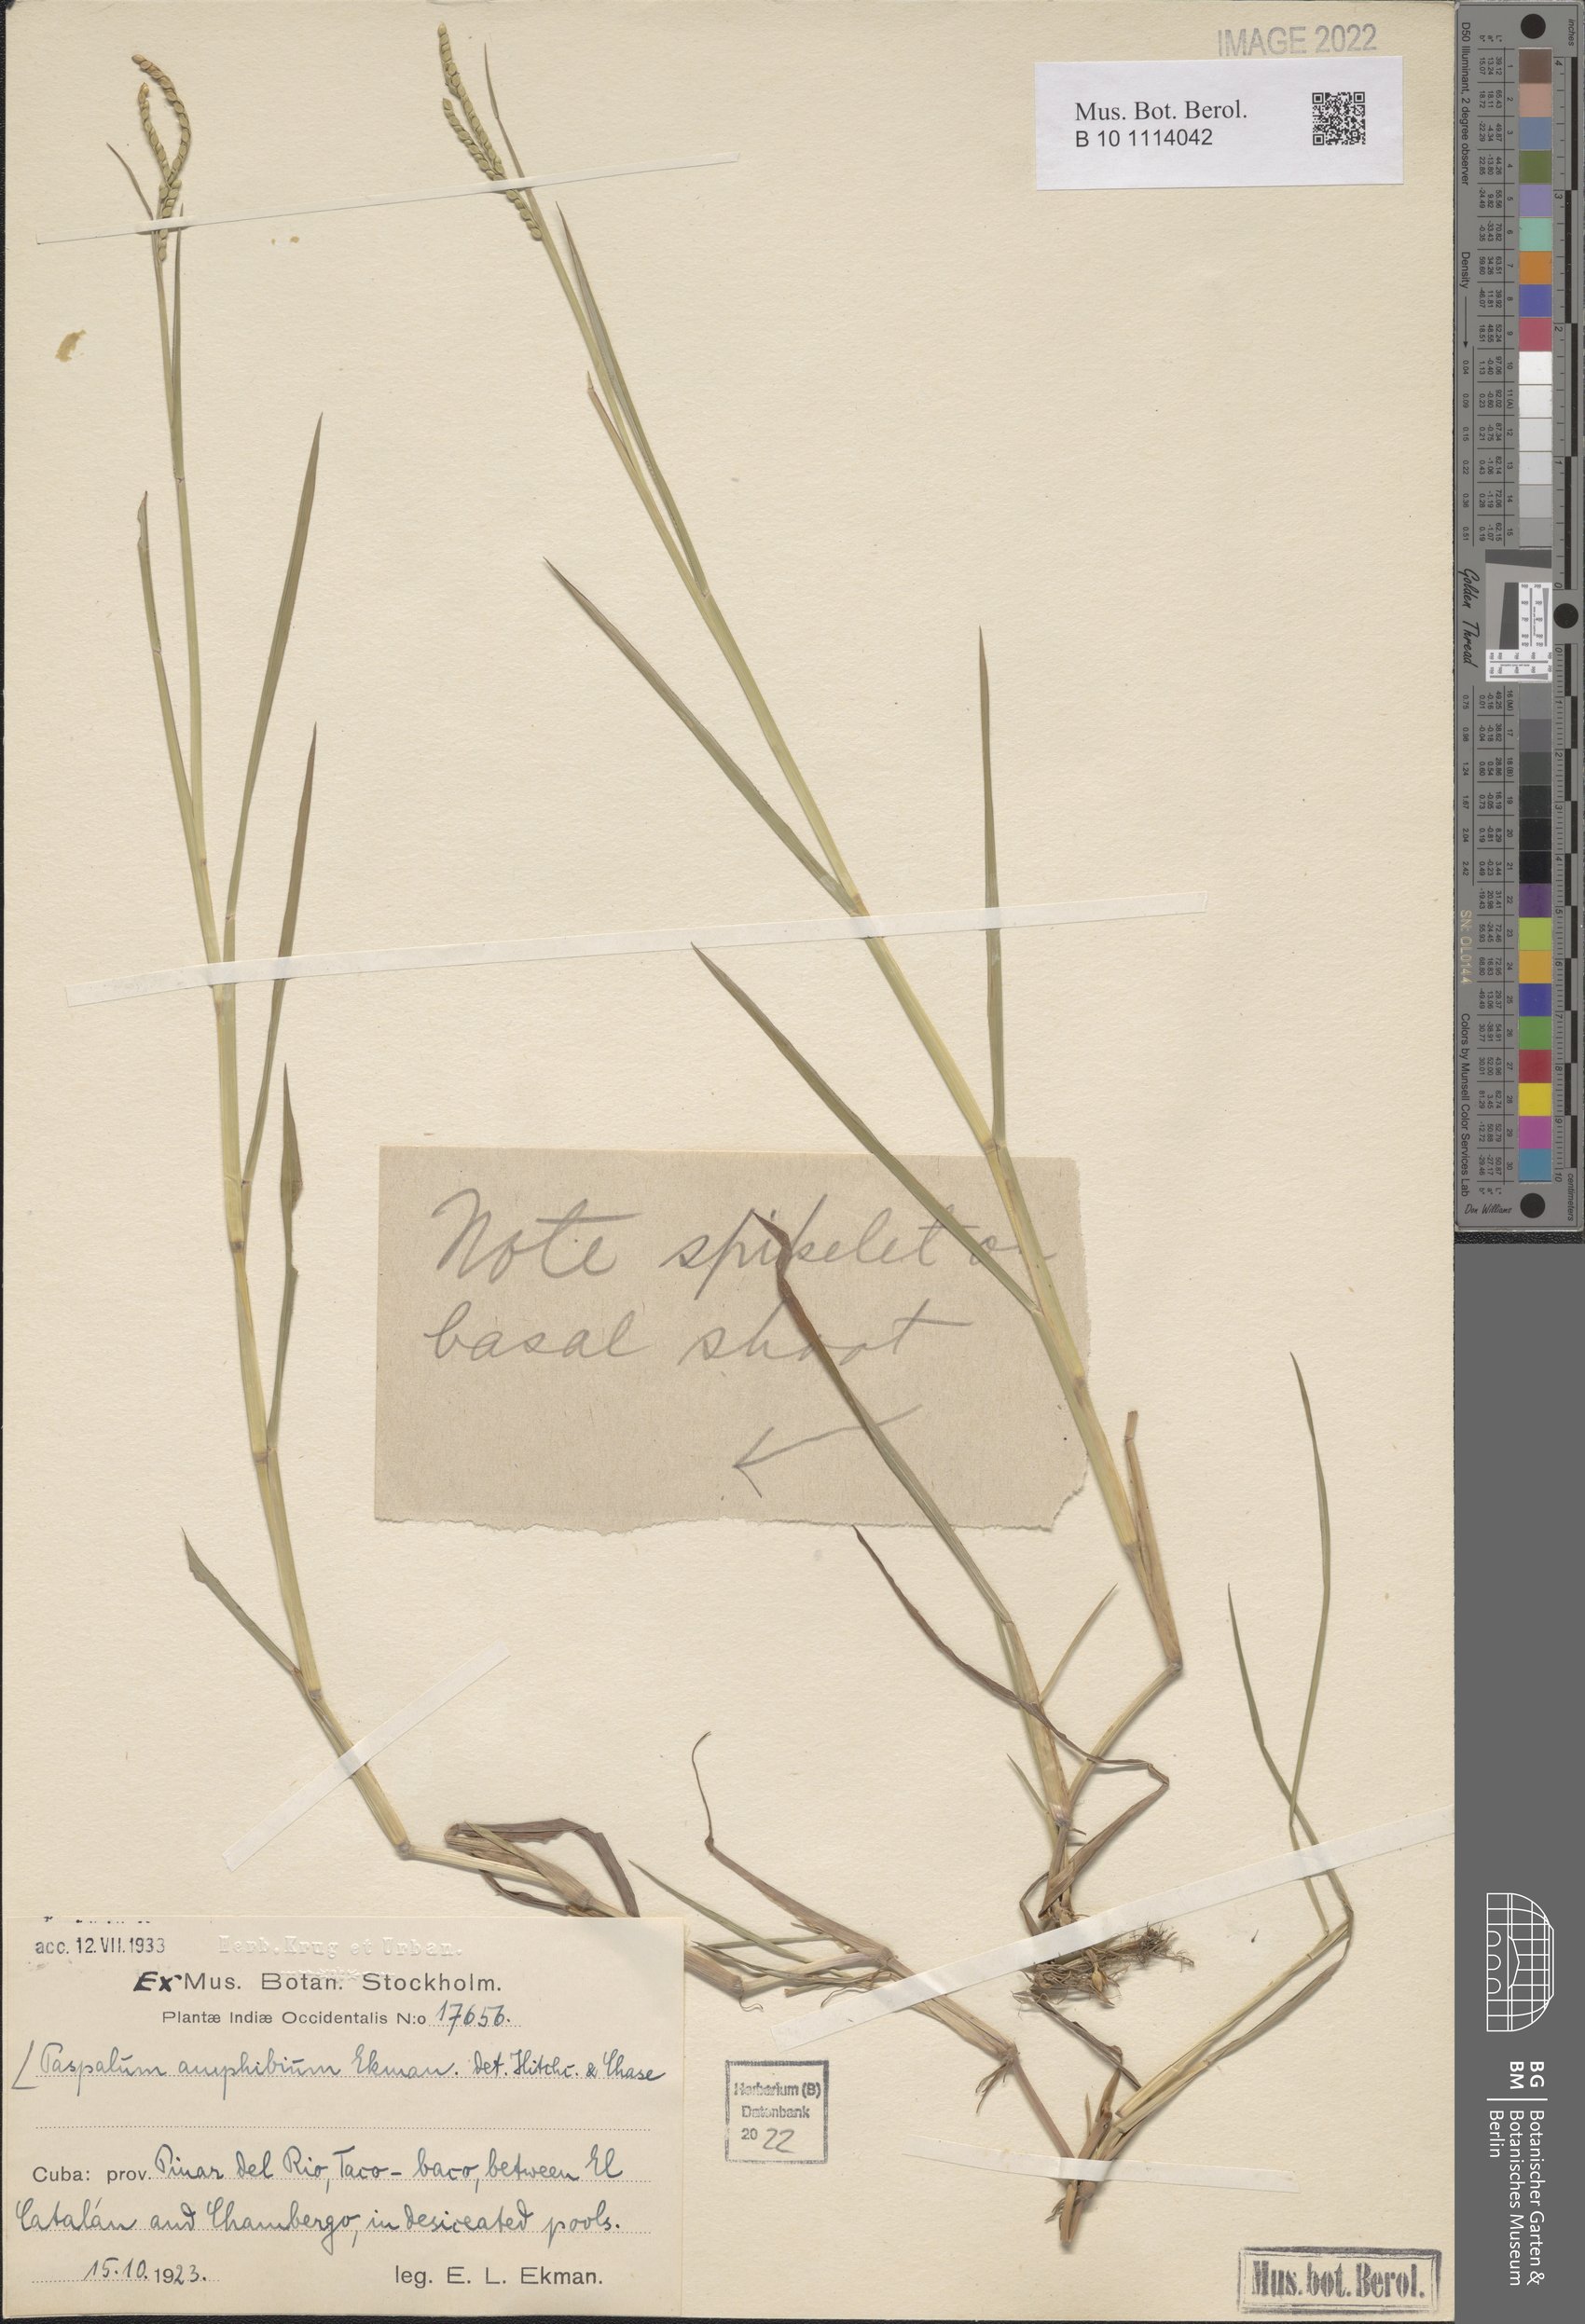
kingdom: Plantae
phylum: Tracheophyta
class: Liliopsida
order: Poales
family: Poaceae
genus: Paspalum
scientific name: Paspalum amphicarpum
